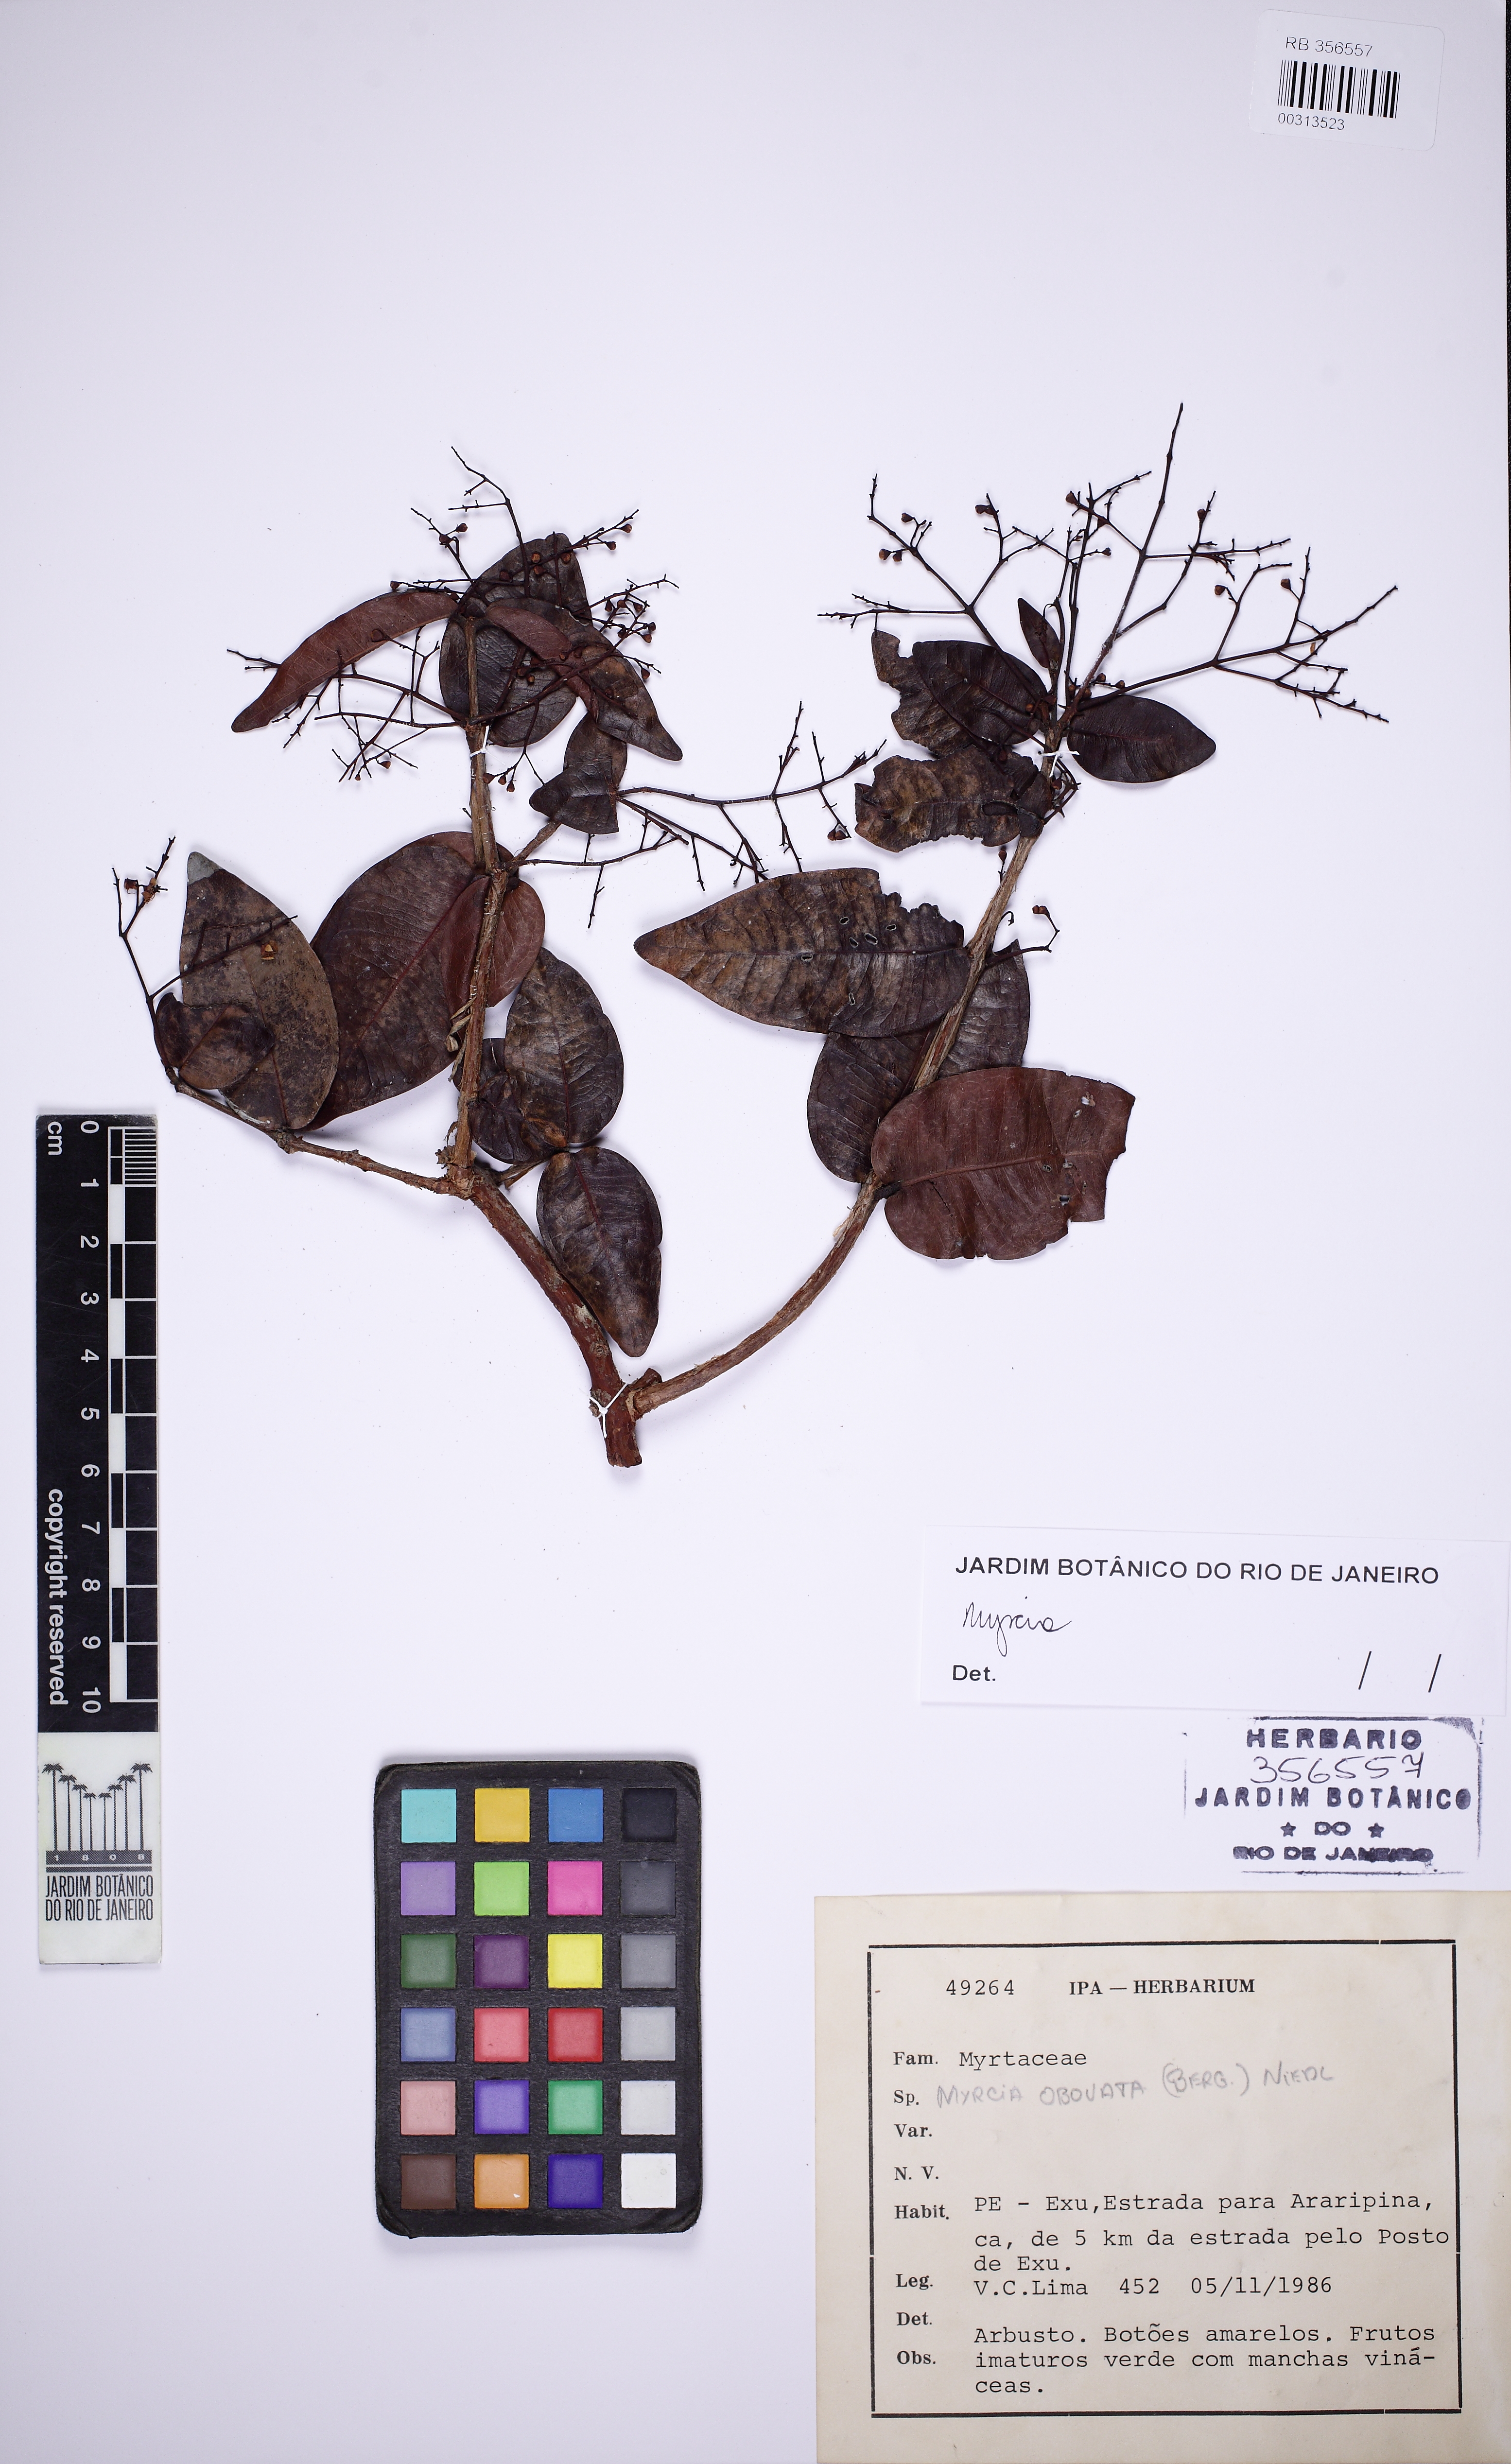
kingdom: Plantae
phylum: Tracheophyta
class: Magnoliopsida
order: Myrtales
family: Myrtaceae
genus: Myrcia
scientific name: Myrcia amazonica
